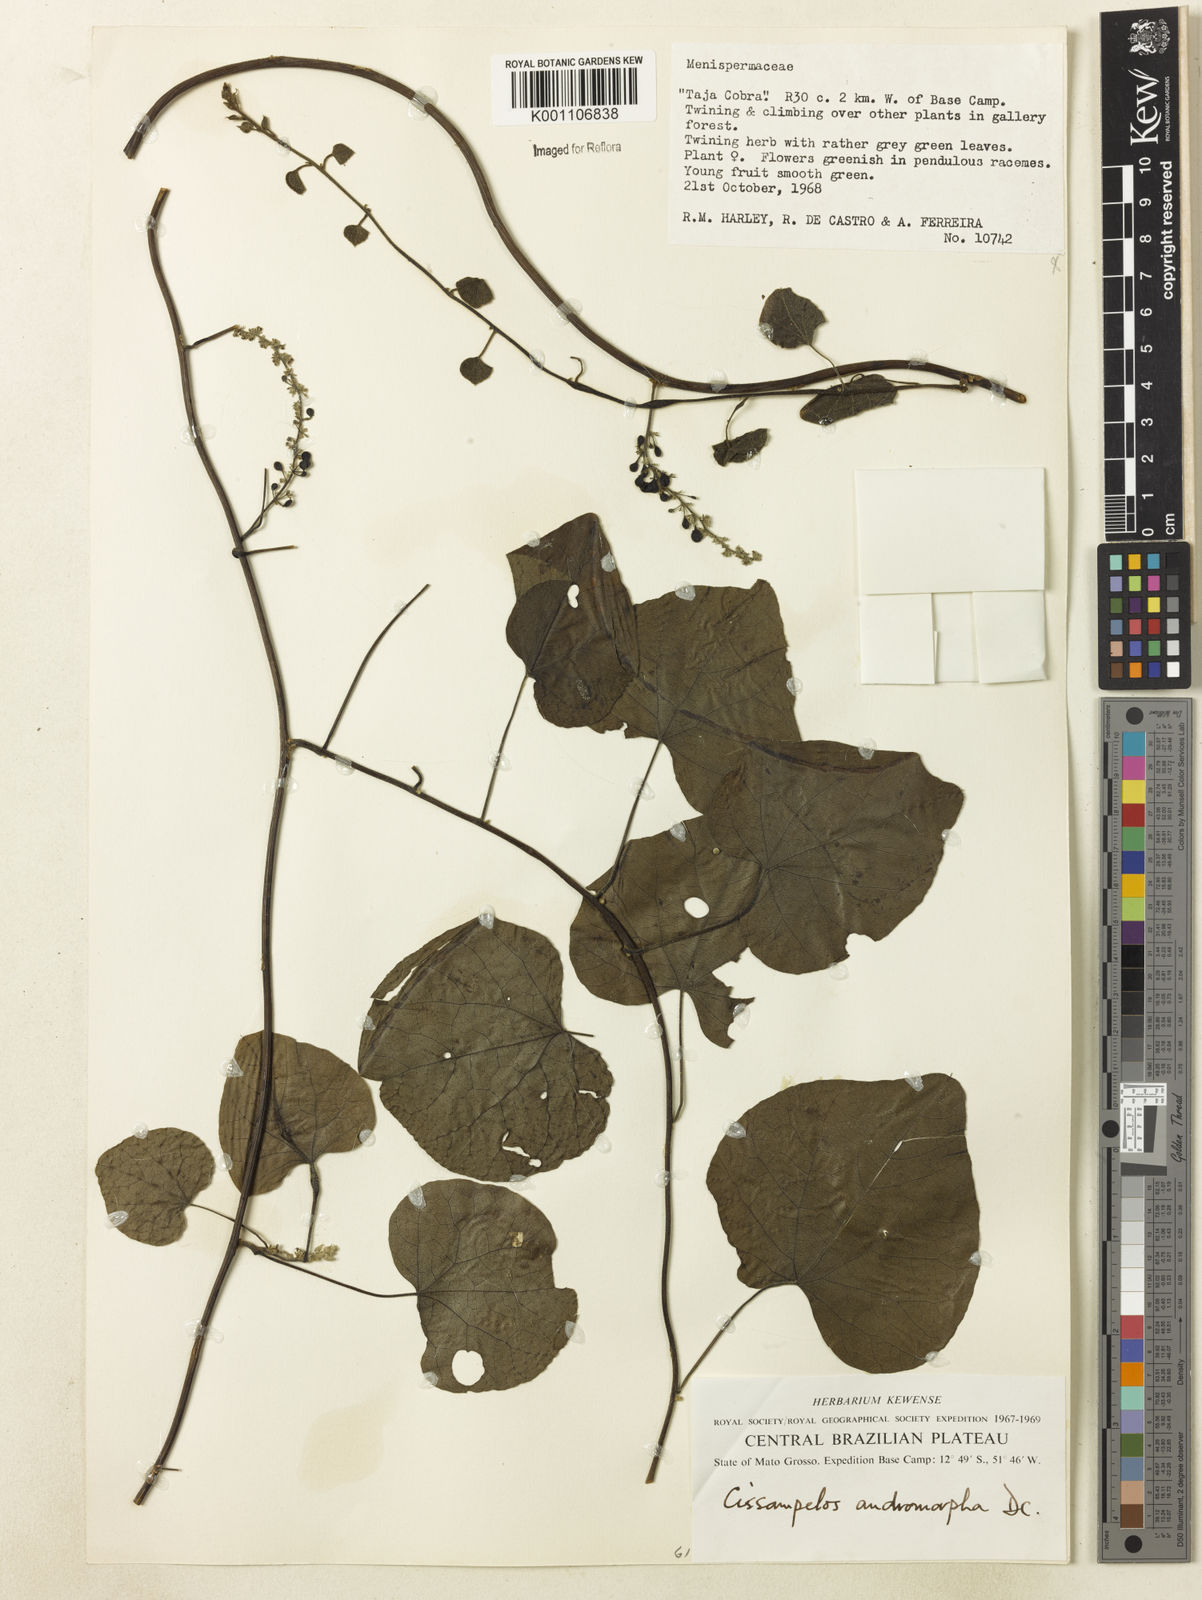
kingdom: Plantae
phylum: Tracheophyta
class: Magnoliopsida
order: Ranunculales
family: Menispermaceae
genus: Cissampelos
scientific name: Cissampelos andromorpha
